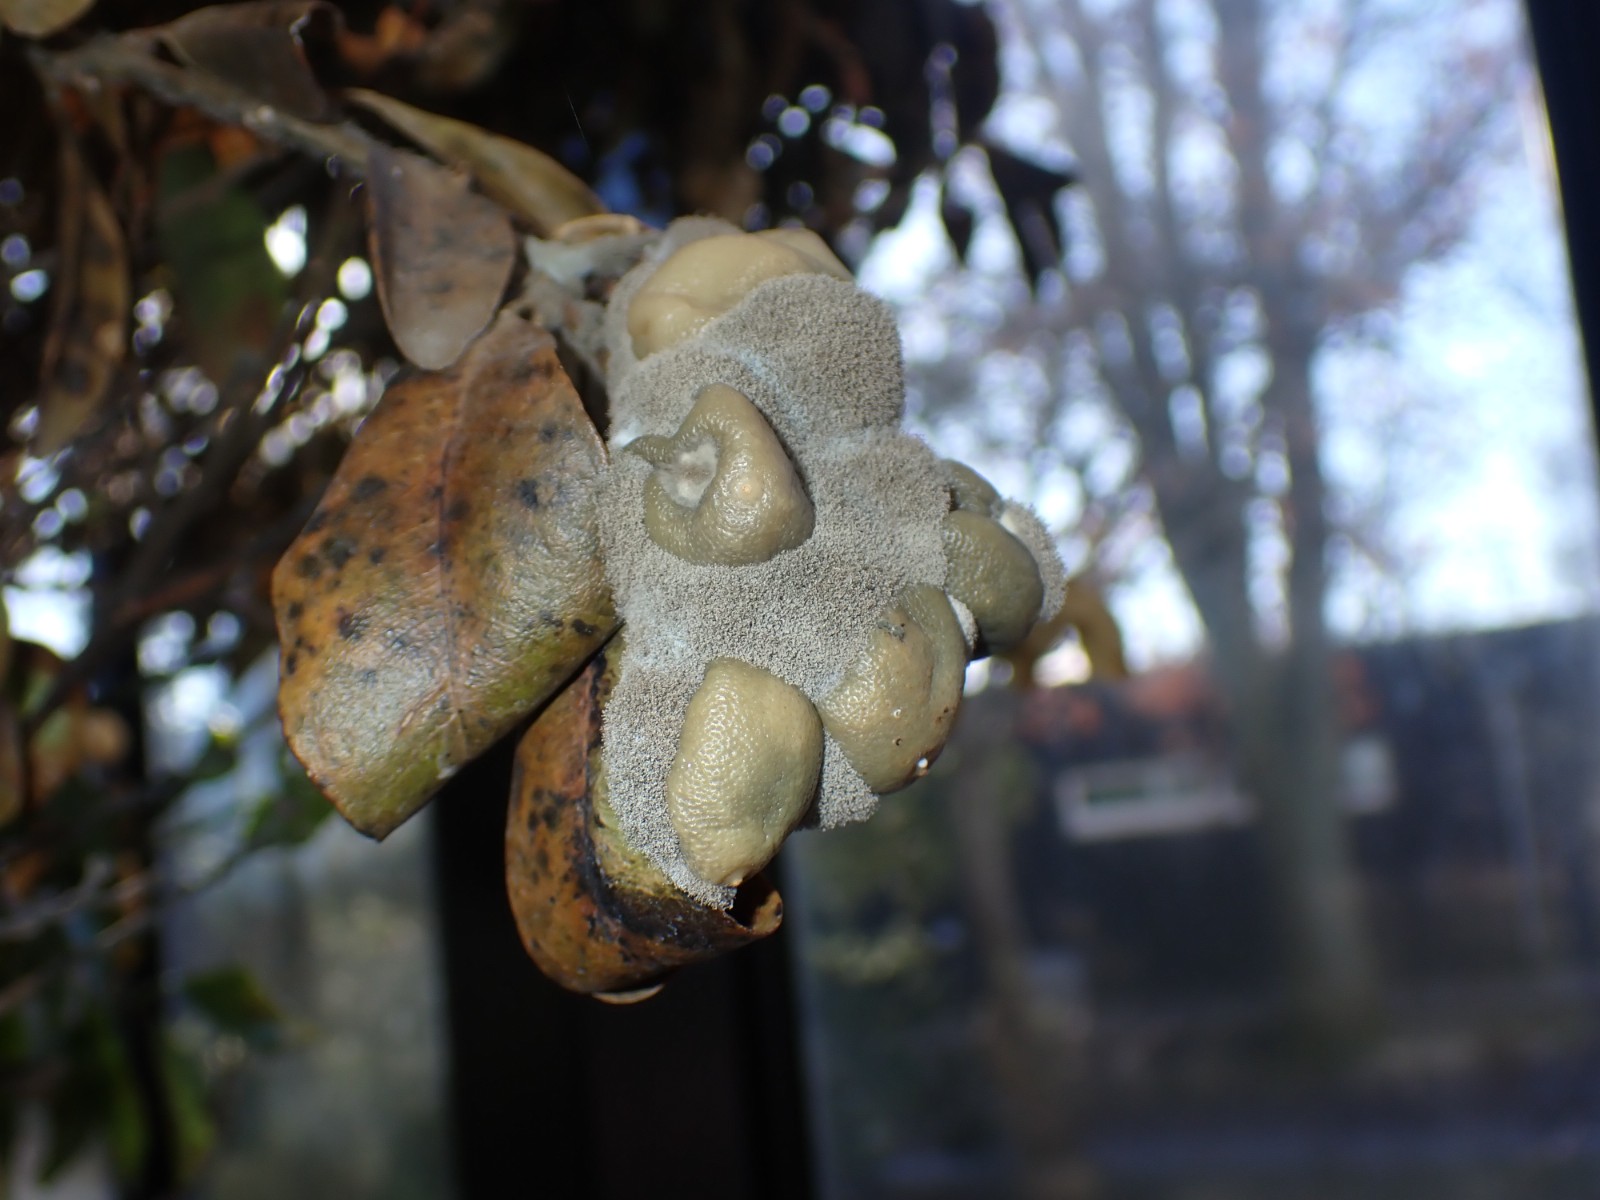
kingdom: Fungi
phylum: Ascomycota
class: Leotiomycetes
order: Helotiales
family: Sclerotiniaceae
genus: Botrytis
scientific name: Botrytis cinerea
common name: Grey mould
